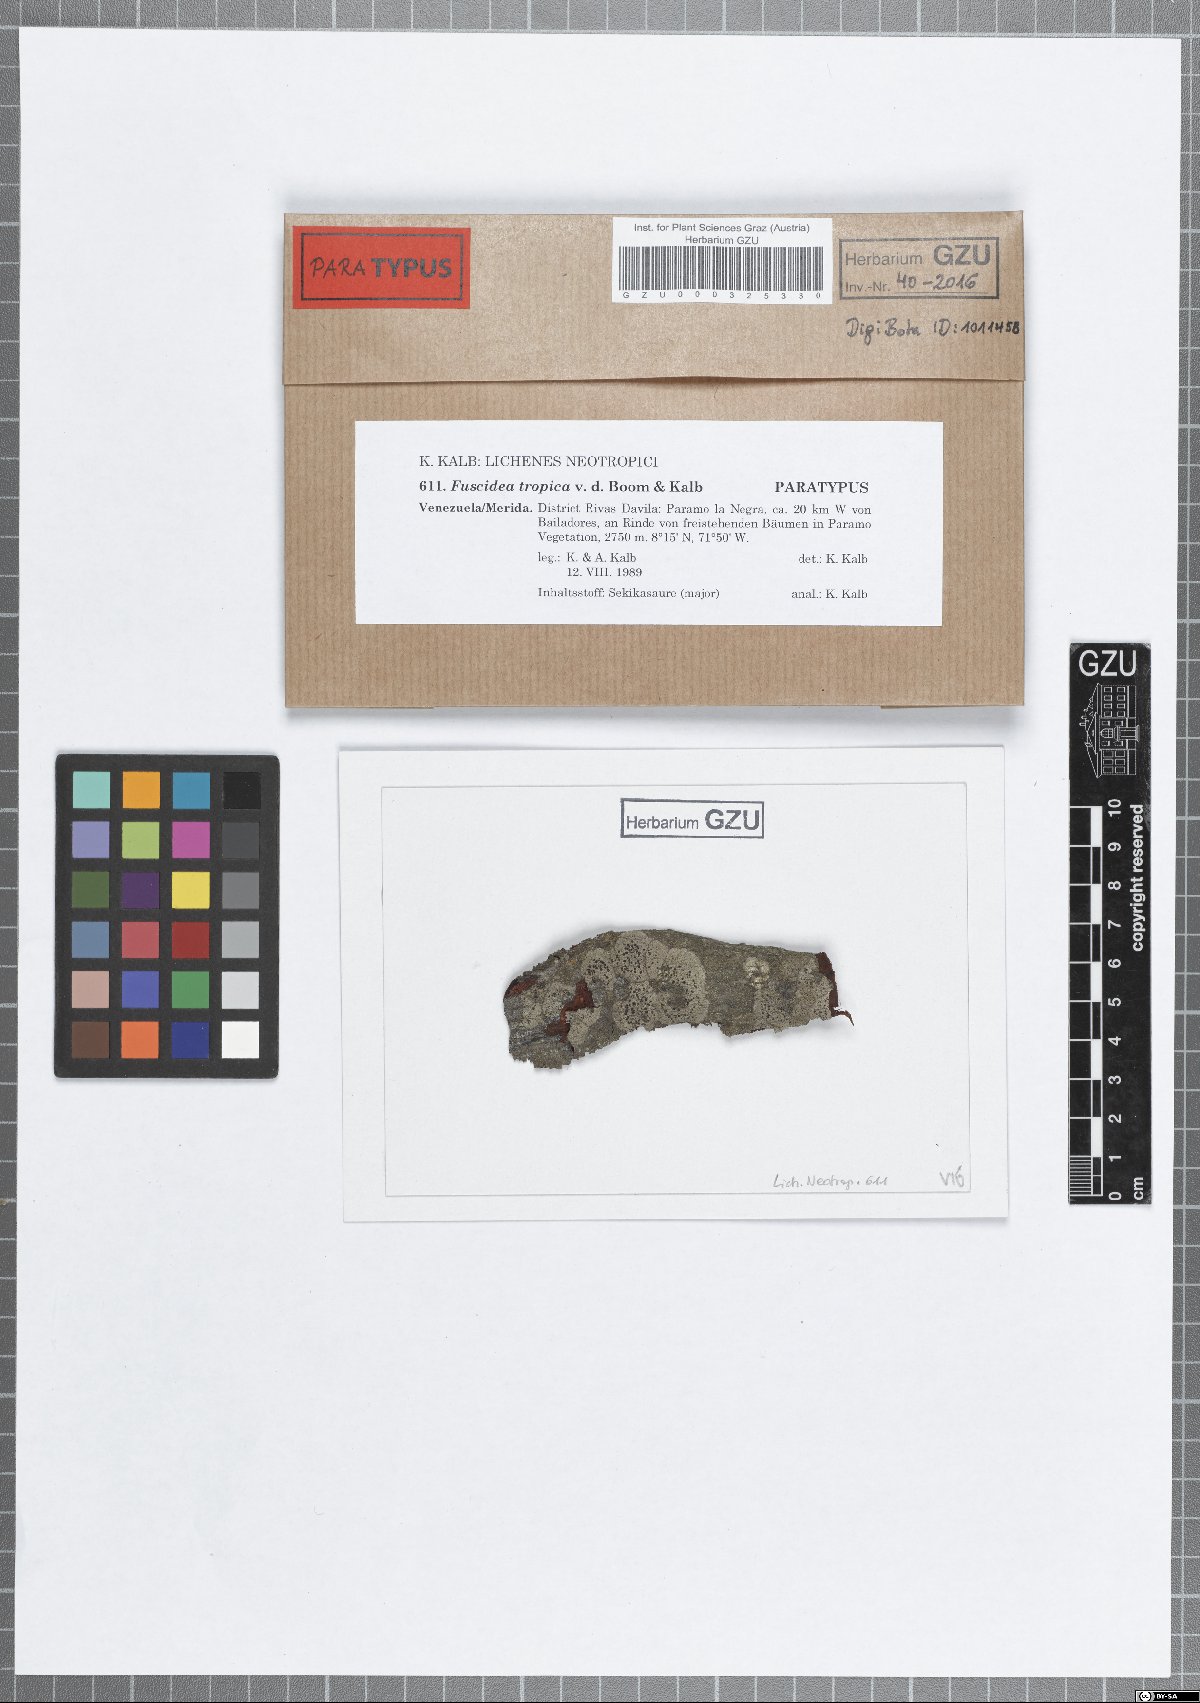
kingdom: Fungi
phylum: Ascomycota
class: Lecanoromycetes
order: Umbilicariales
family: Fuscideaceae
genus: Fuscidea
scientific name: Fuscidea tropica
